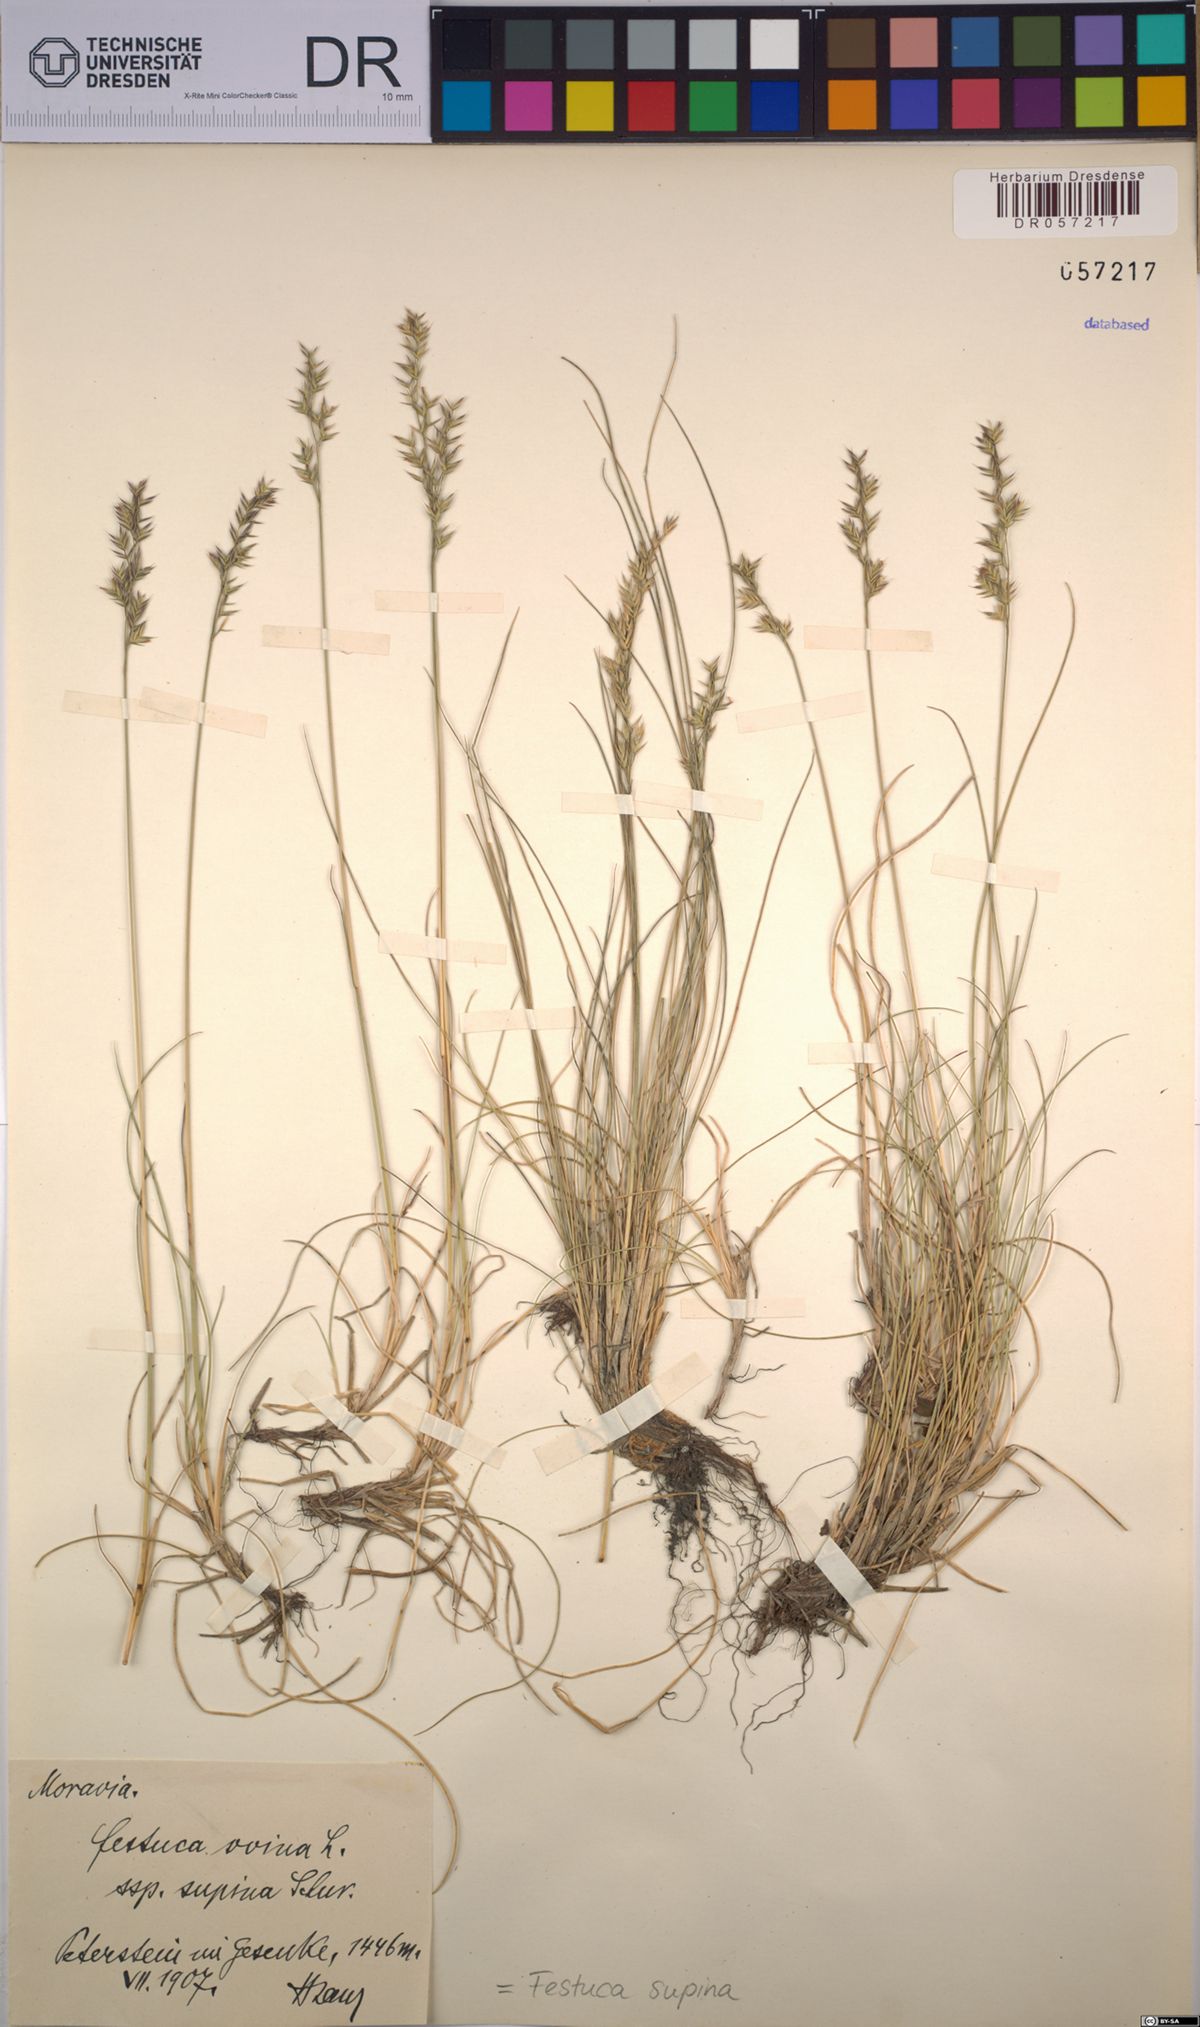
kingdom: Plantae
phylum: Tracheophyta
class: Liliopsida
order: Poales
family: Poaceae
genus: Festuca
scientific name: Festuca airoides
